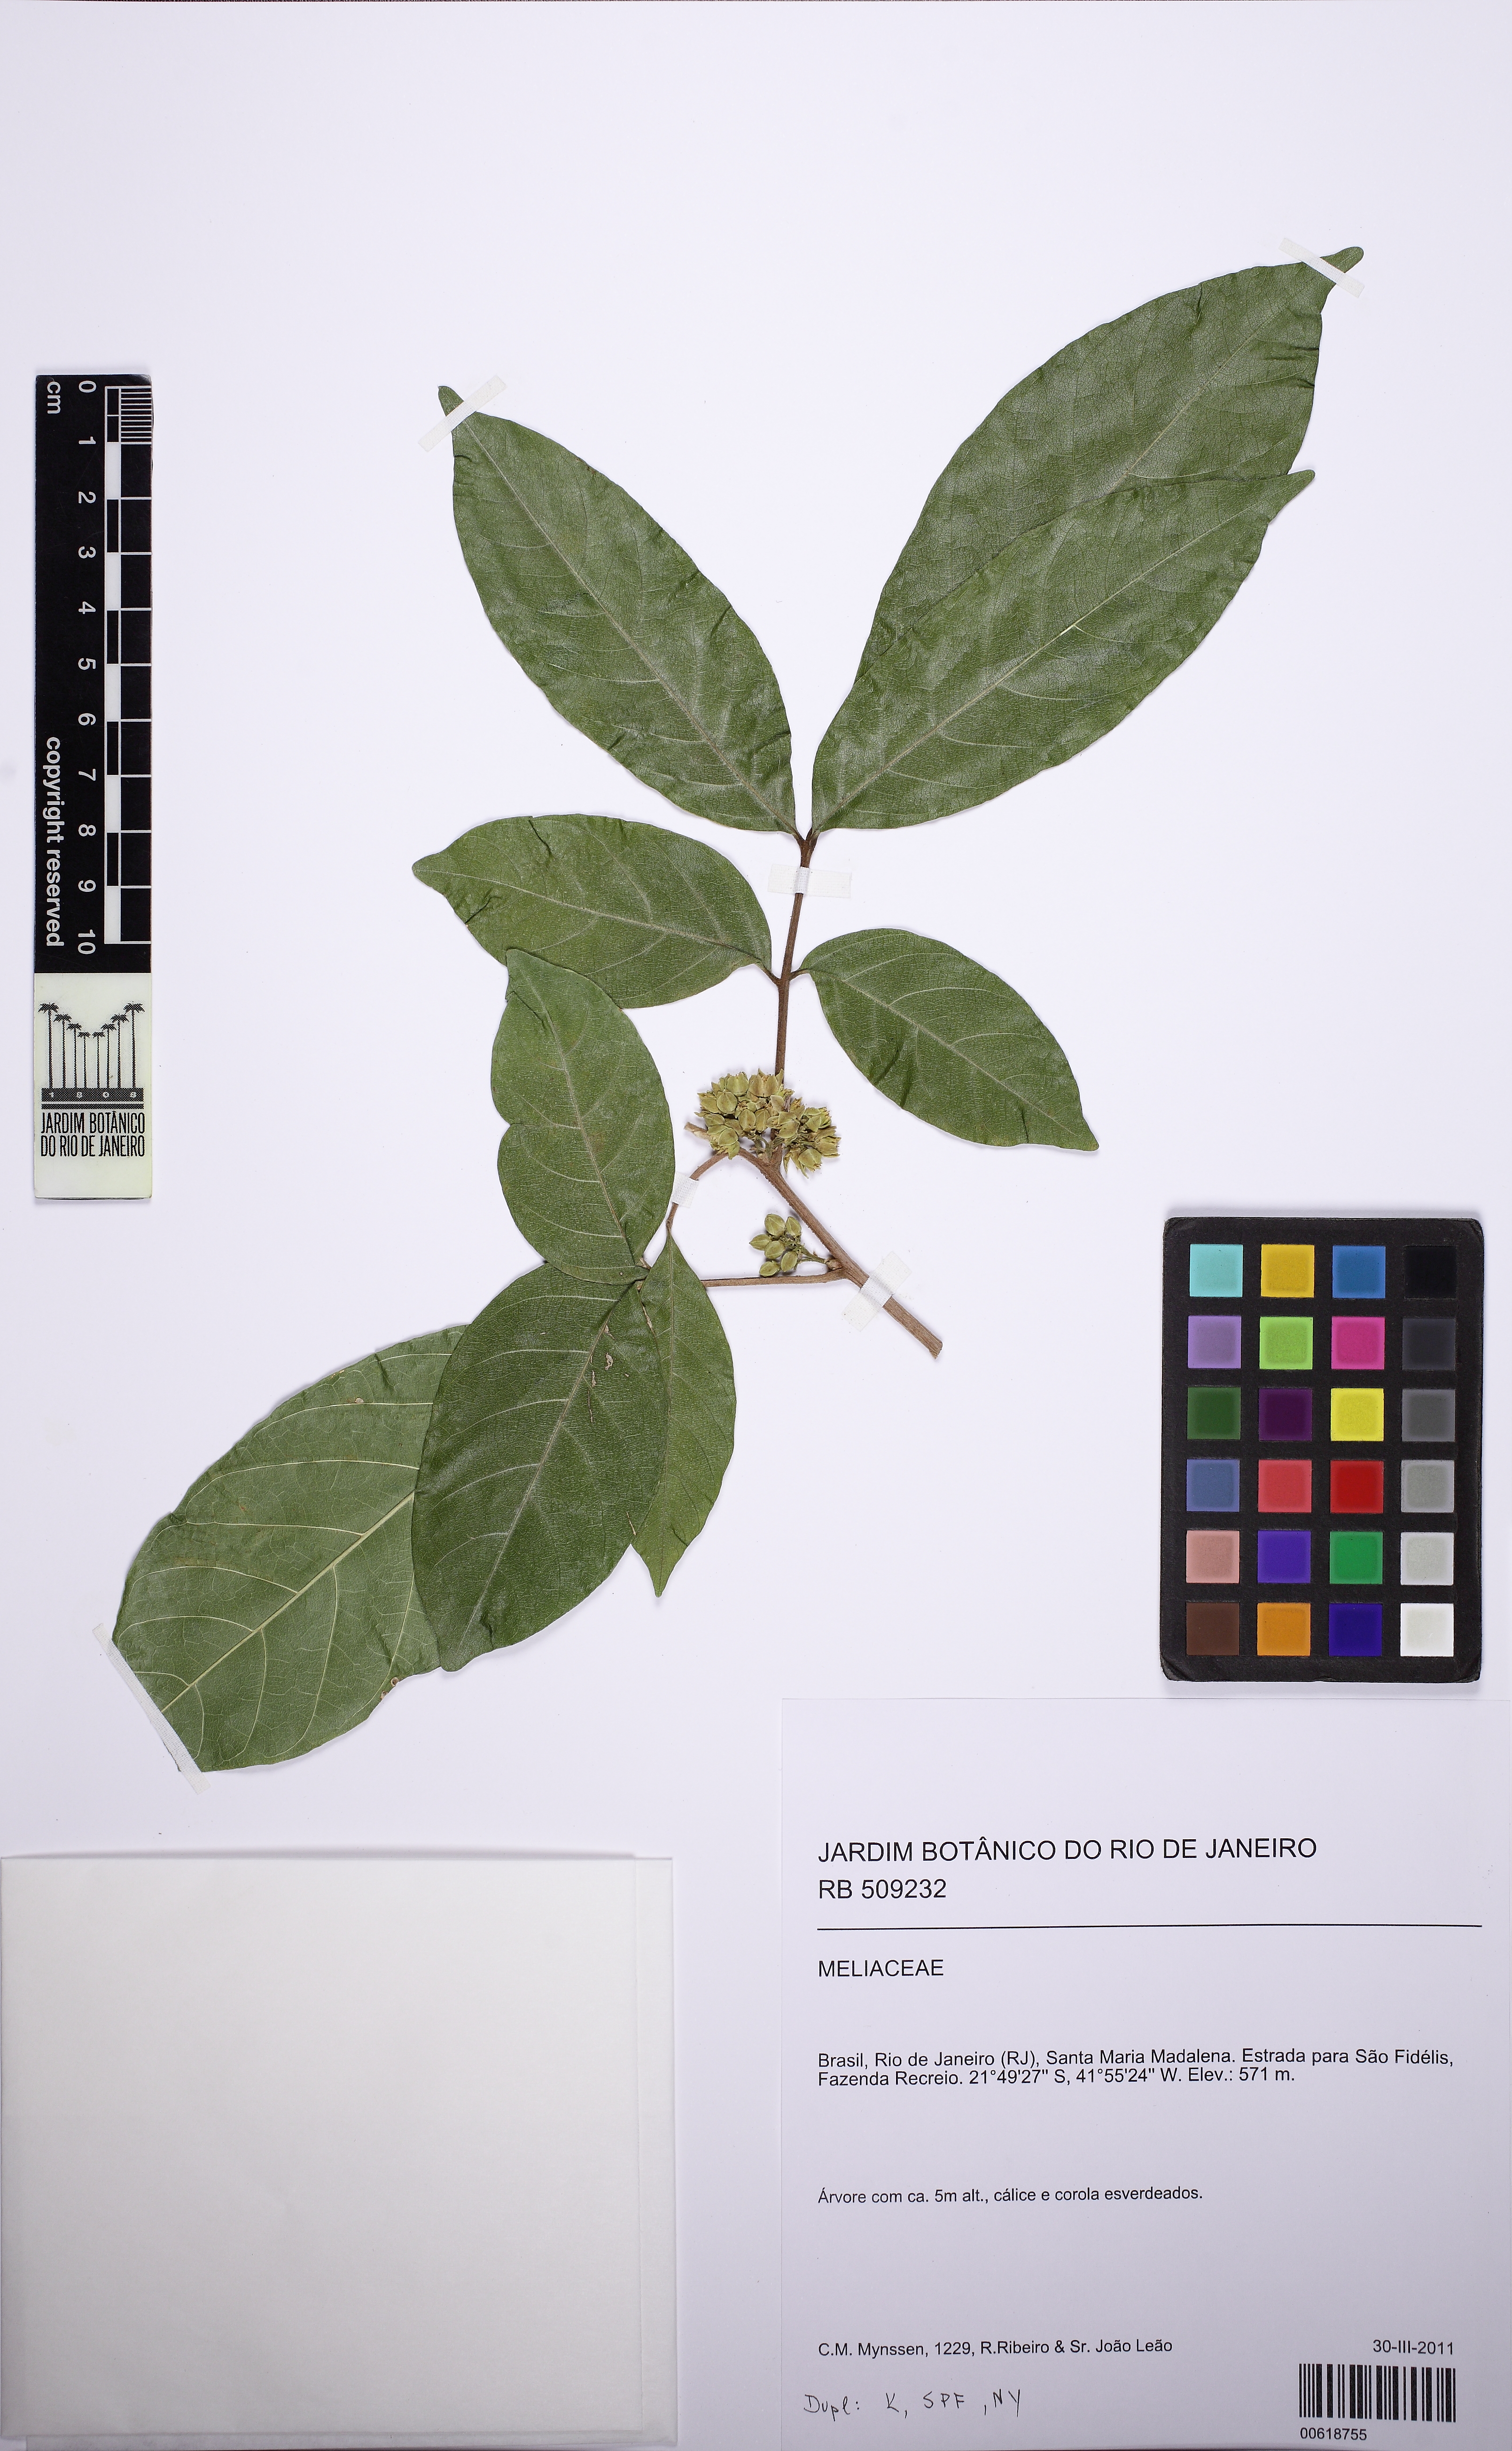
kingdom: Plantae
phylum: Tracheophyta
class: Magnoliopsida
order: Sapindales
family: Meliaceae
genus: Trichilia
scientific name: Trichilia pallida
